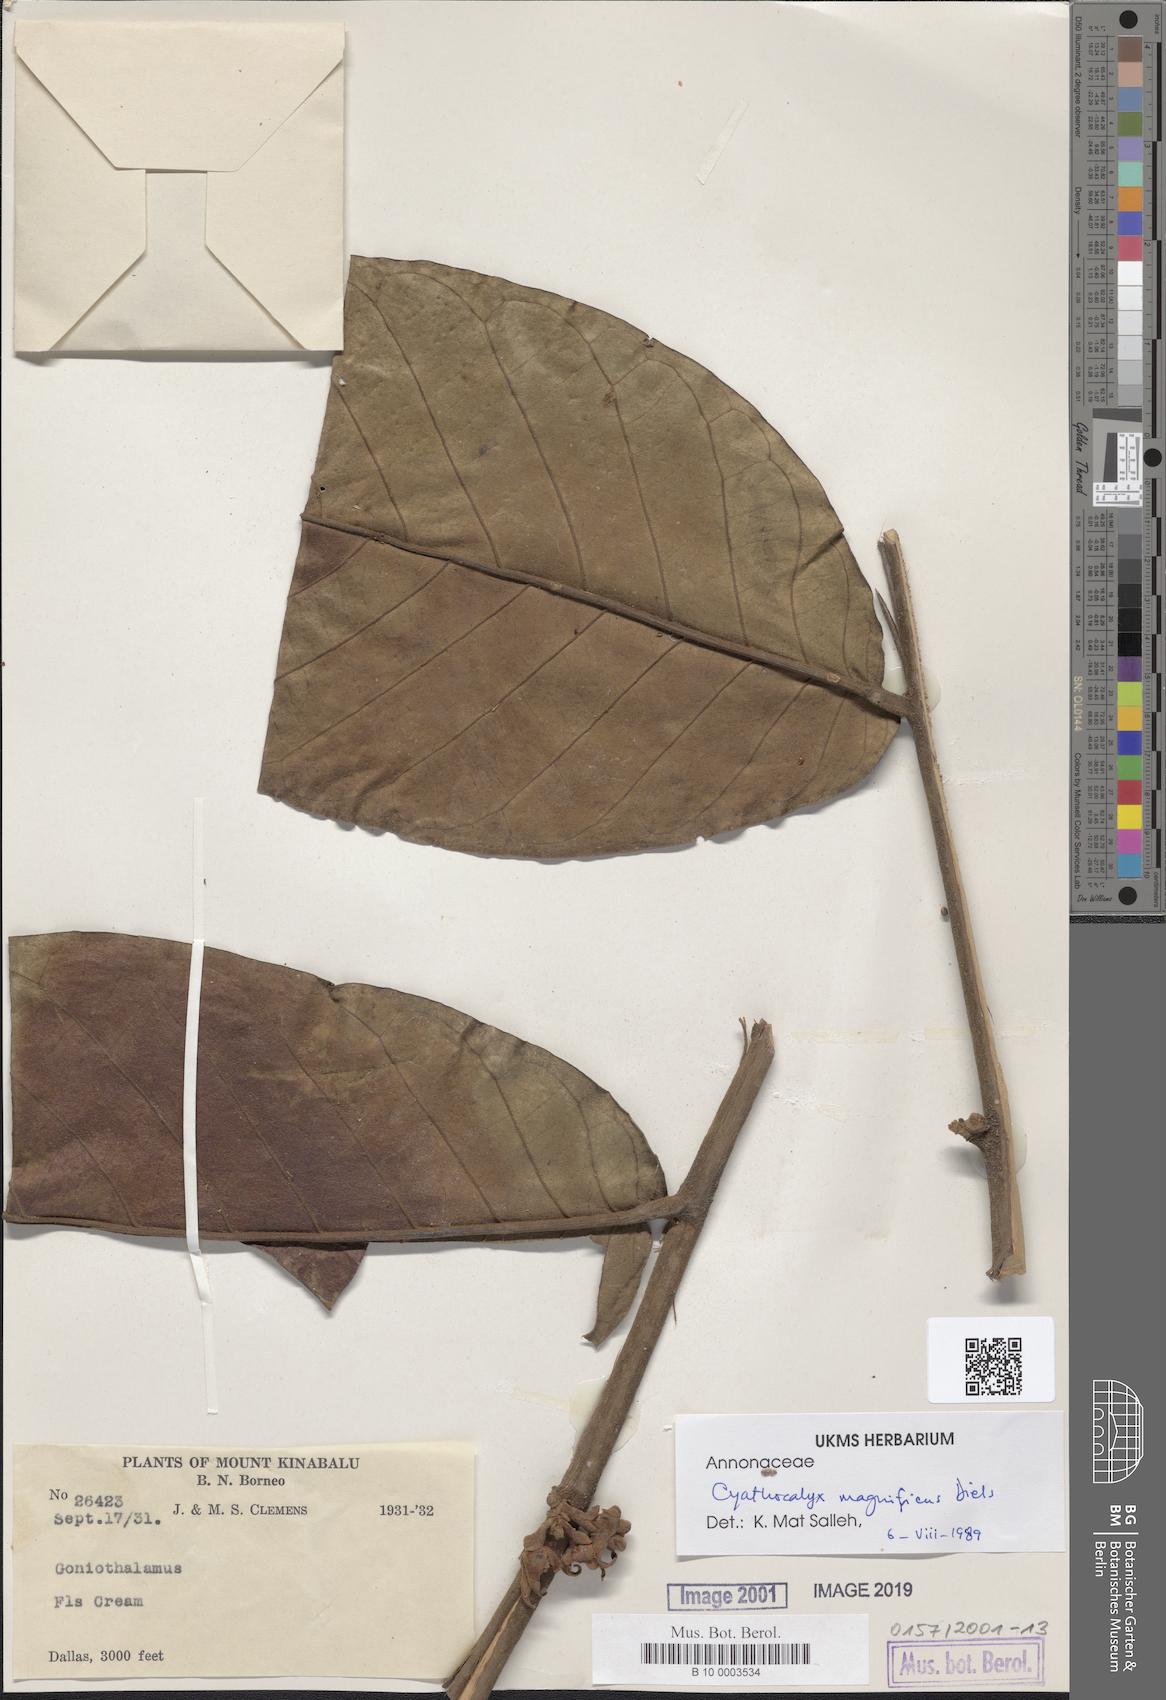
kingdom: Plantae
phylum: Tracheophyta
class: Magnoliopsida
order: Magnoliales
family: Annonaceae
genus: Drepananthus
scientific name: Drepananthus magnificus
